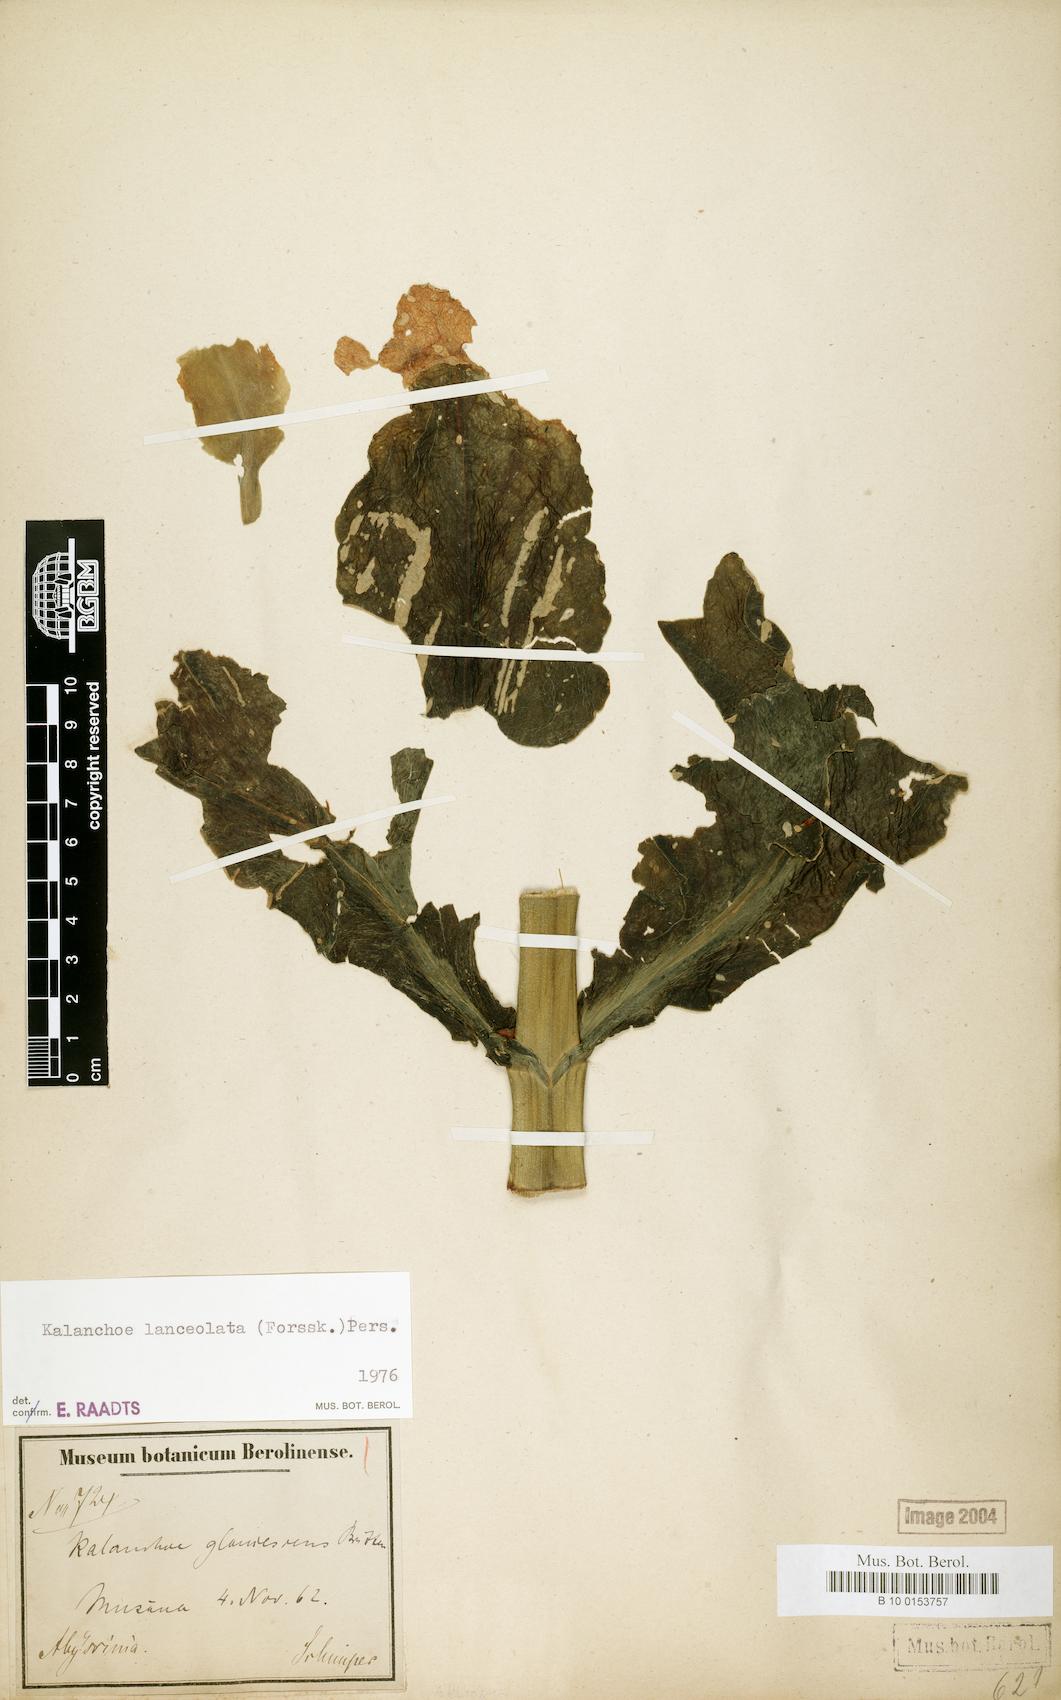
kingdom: Plantae
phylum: Tracheophyta
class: Magnoliopsida
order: Saxifragales
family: Crassulaceae
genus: Kalanchoe
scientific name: Kalanchoe lanceolata
